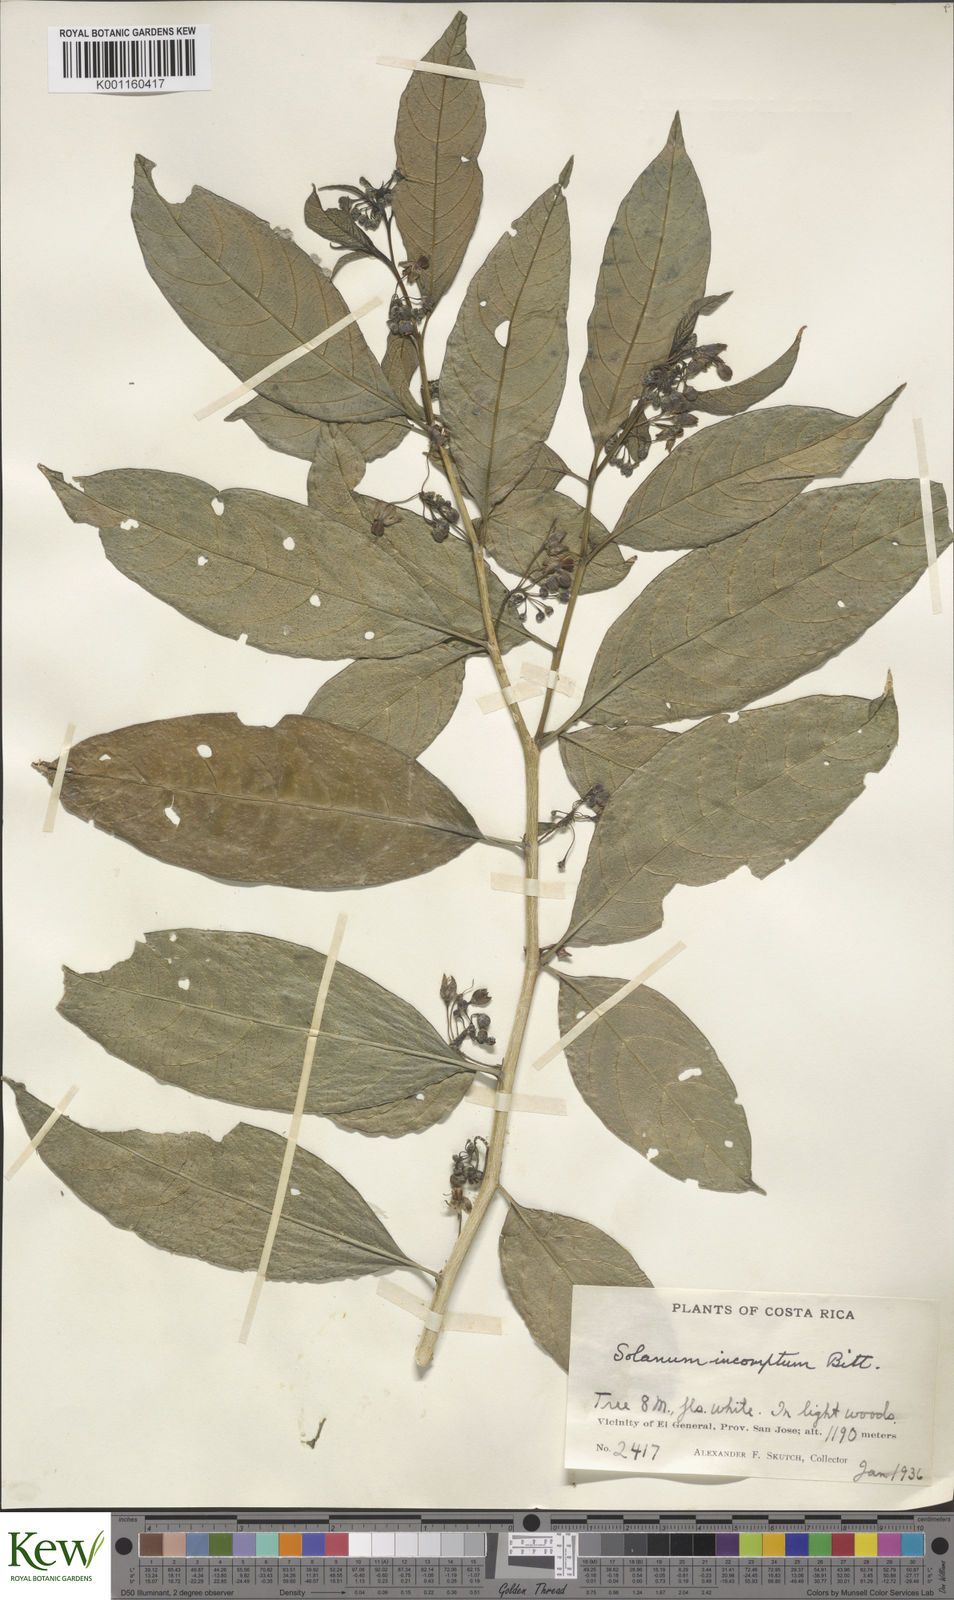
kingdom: Plantae
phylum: Tracheophyta
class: Magnoliopsida
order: Solanales
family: Solanaceae
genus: Solanum
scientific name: Solanum incomptum
